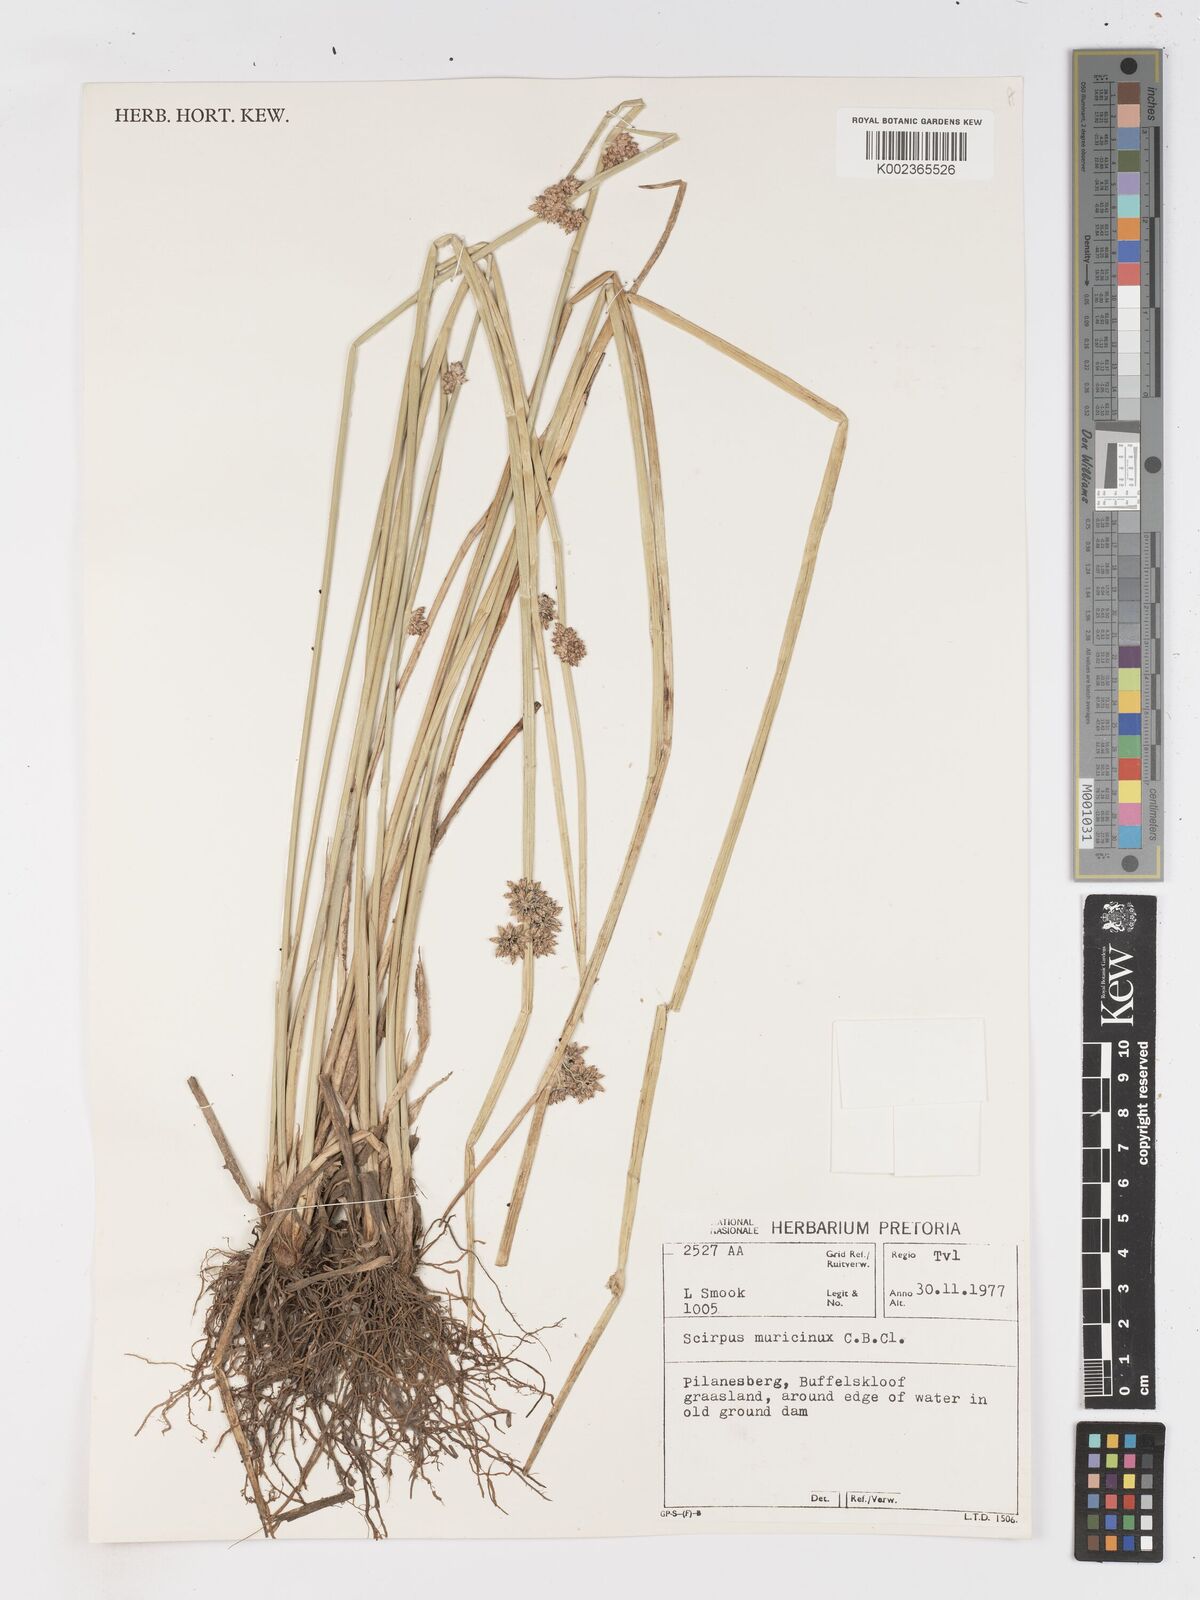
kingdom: Plantae
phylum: Tracheophyta
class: Liliopsida
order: Poales
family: Cyperaceae
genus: Schoenoplectiella
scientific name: Schoenoplectiella muricinux
